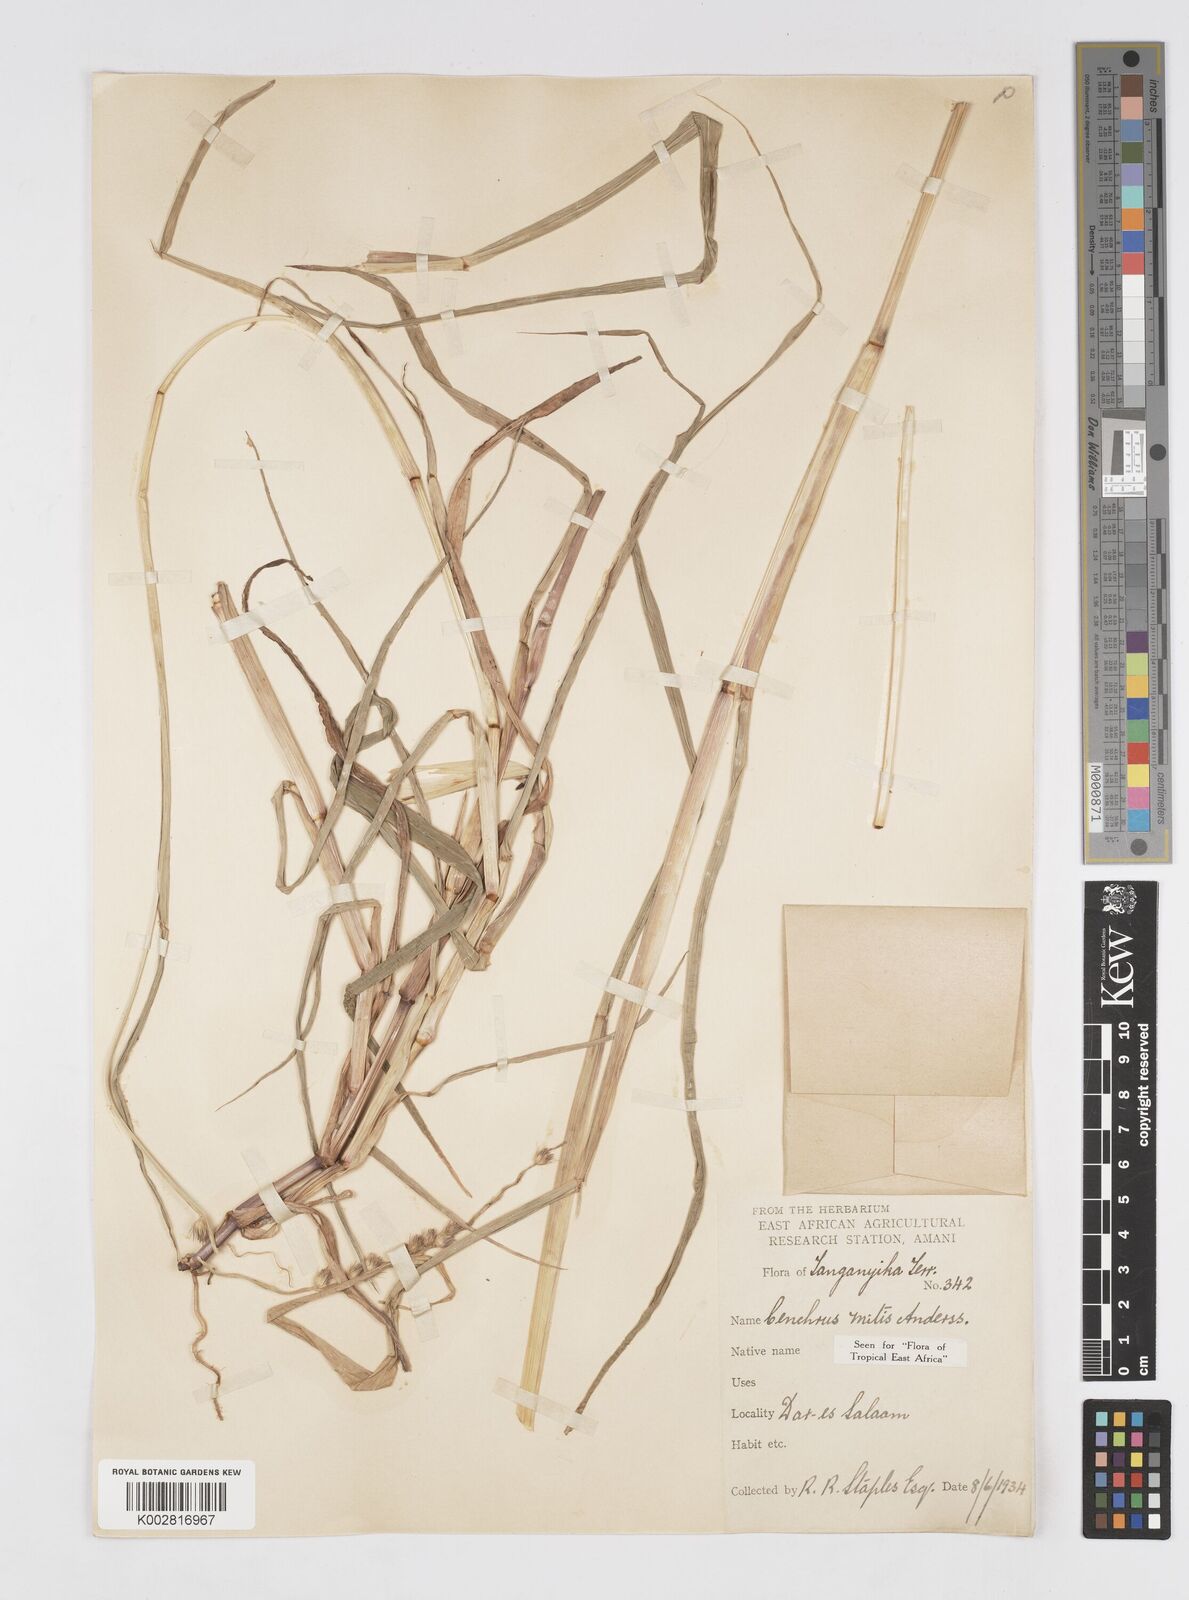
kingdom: Plantae
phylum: Tracheophyta
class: Liliopsida
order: Poales
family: Poaceae
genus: Cenchrus
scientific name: Cenchrus mitis
